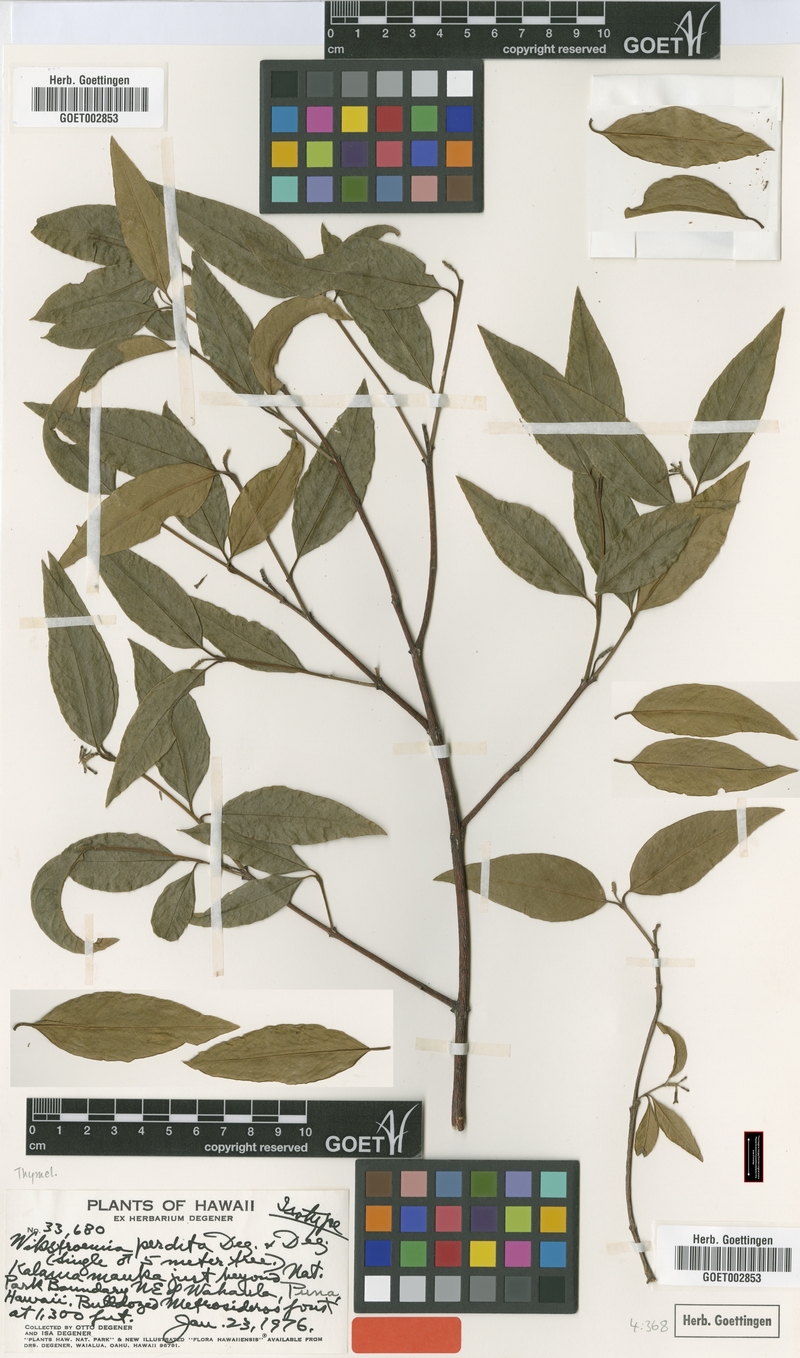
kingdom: Plantae
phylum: Tracheophyta
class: Magnoliopsida
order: Malvales
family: Thymelaeaceae
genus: Wikstroemia
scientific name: Wikstroemia sandwicensis
